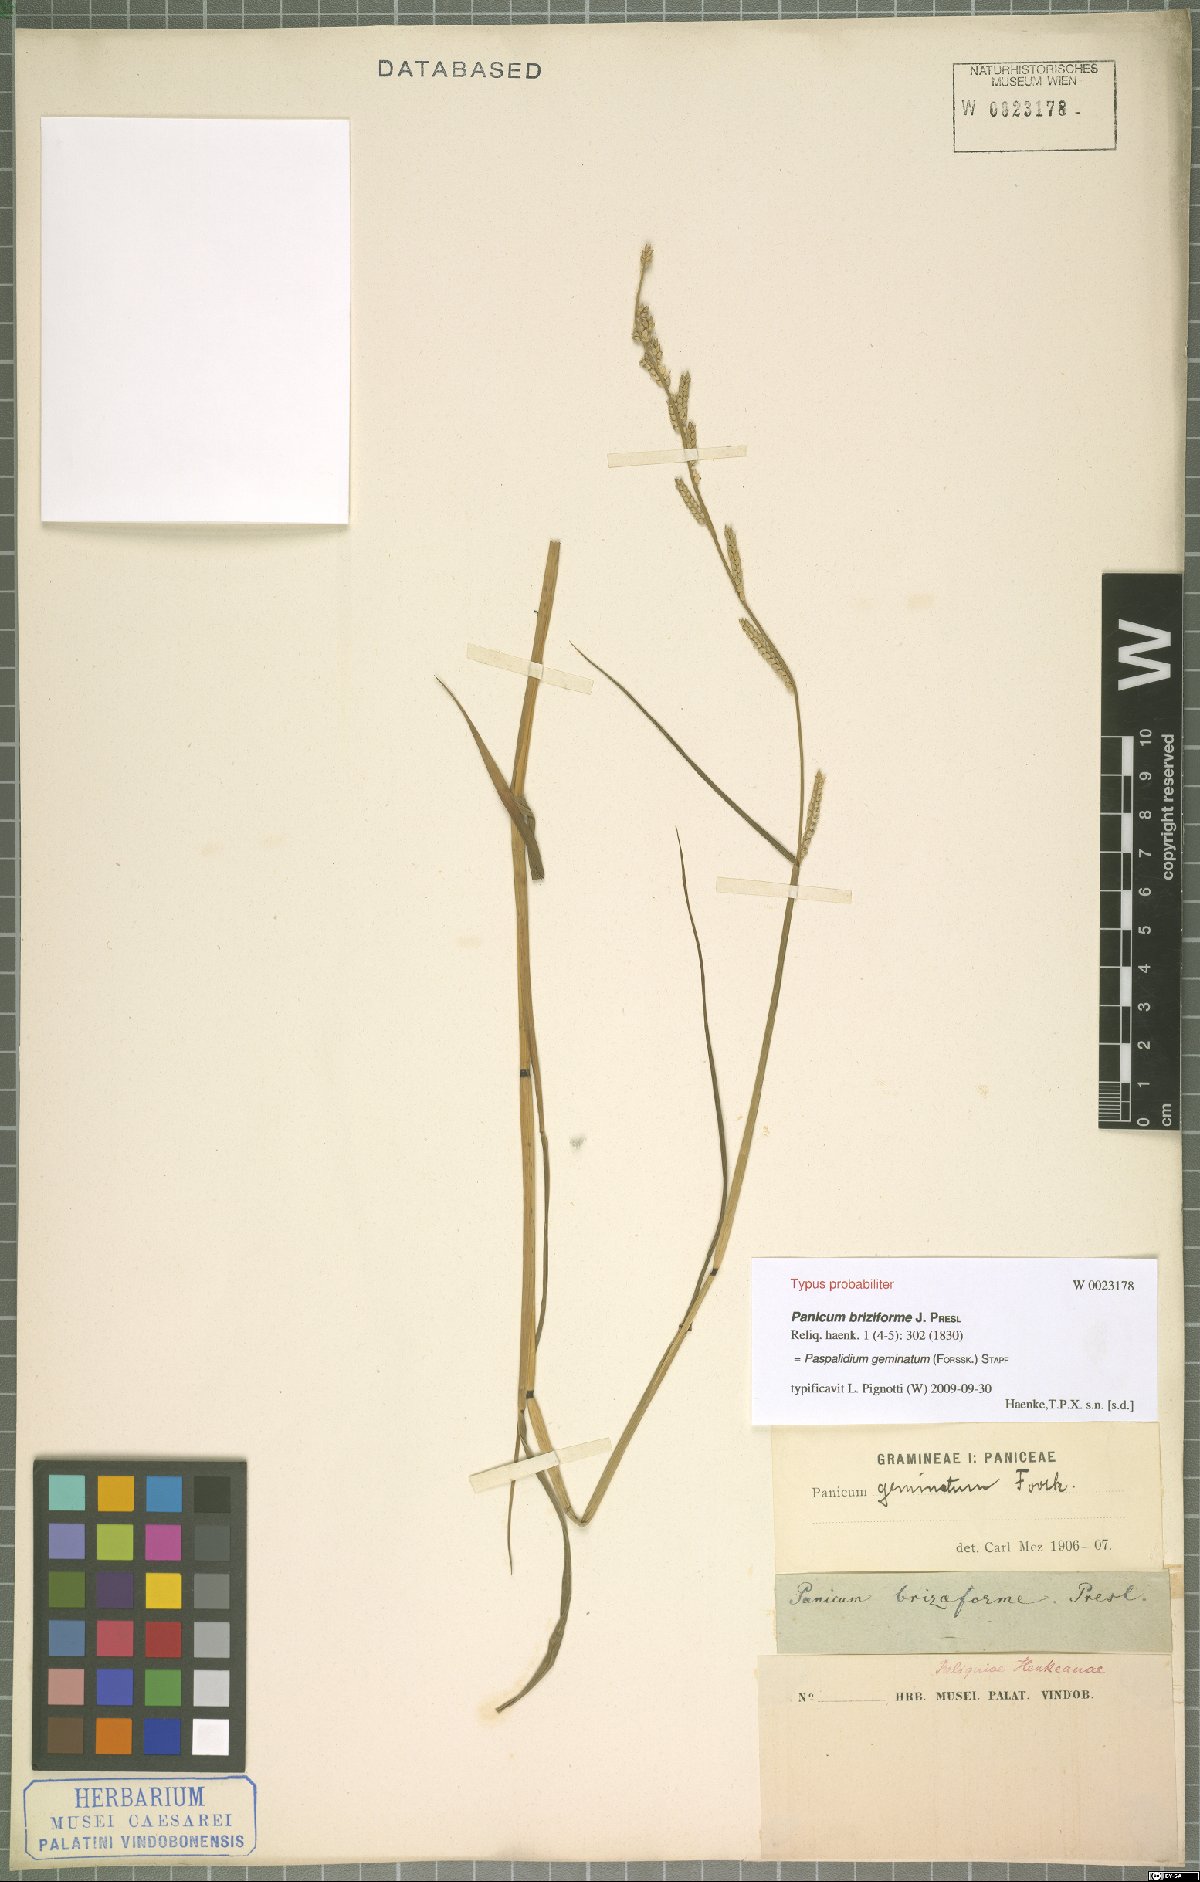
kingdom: Plantae
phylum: Tracheophyta
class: Liliopsida
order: Poales
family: Poaceae
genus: Setaria
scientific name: Setaria geminata
